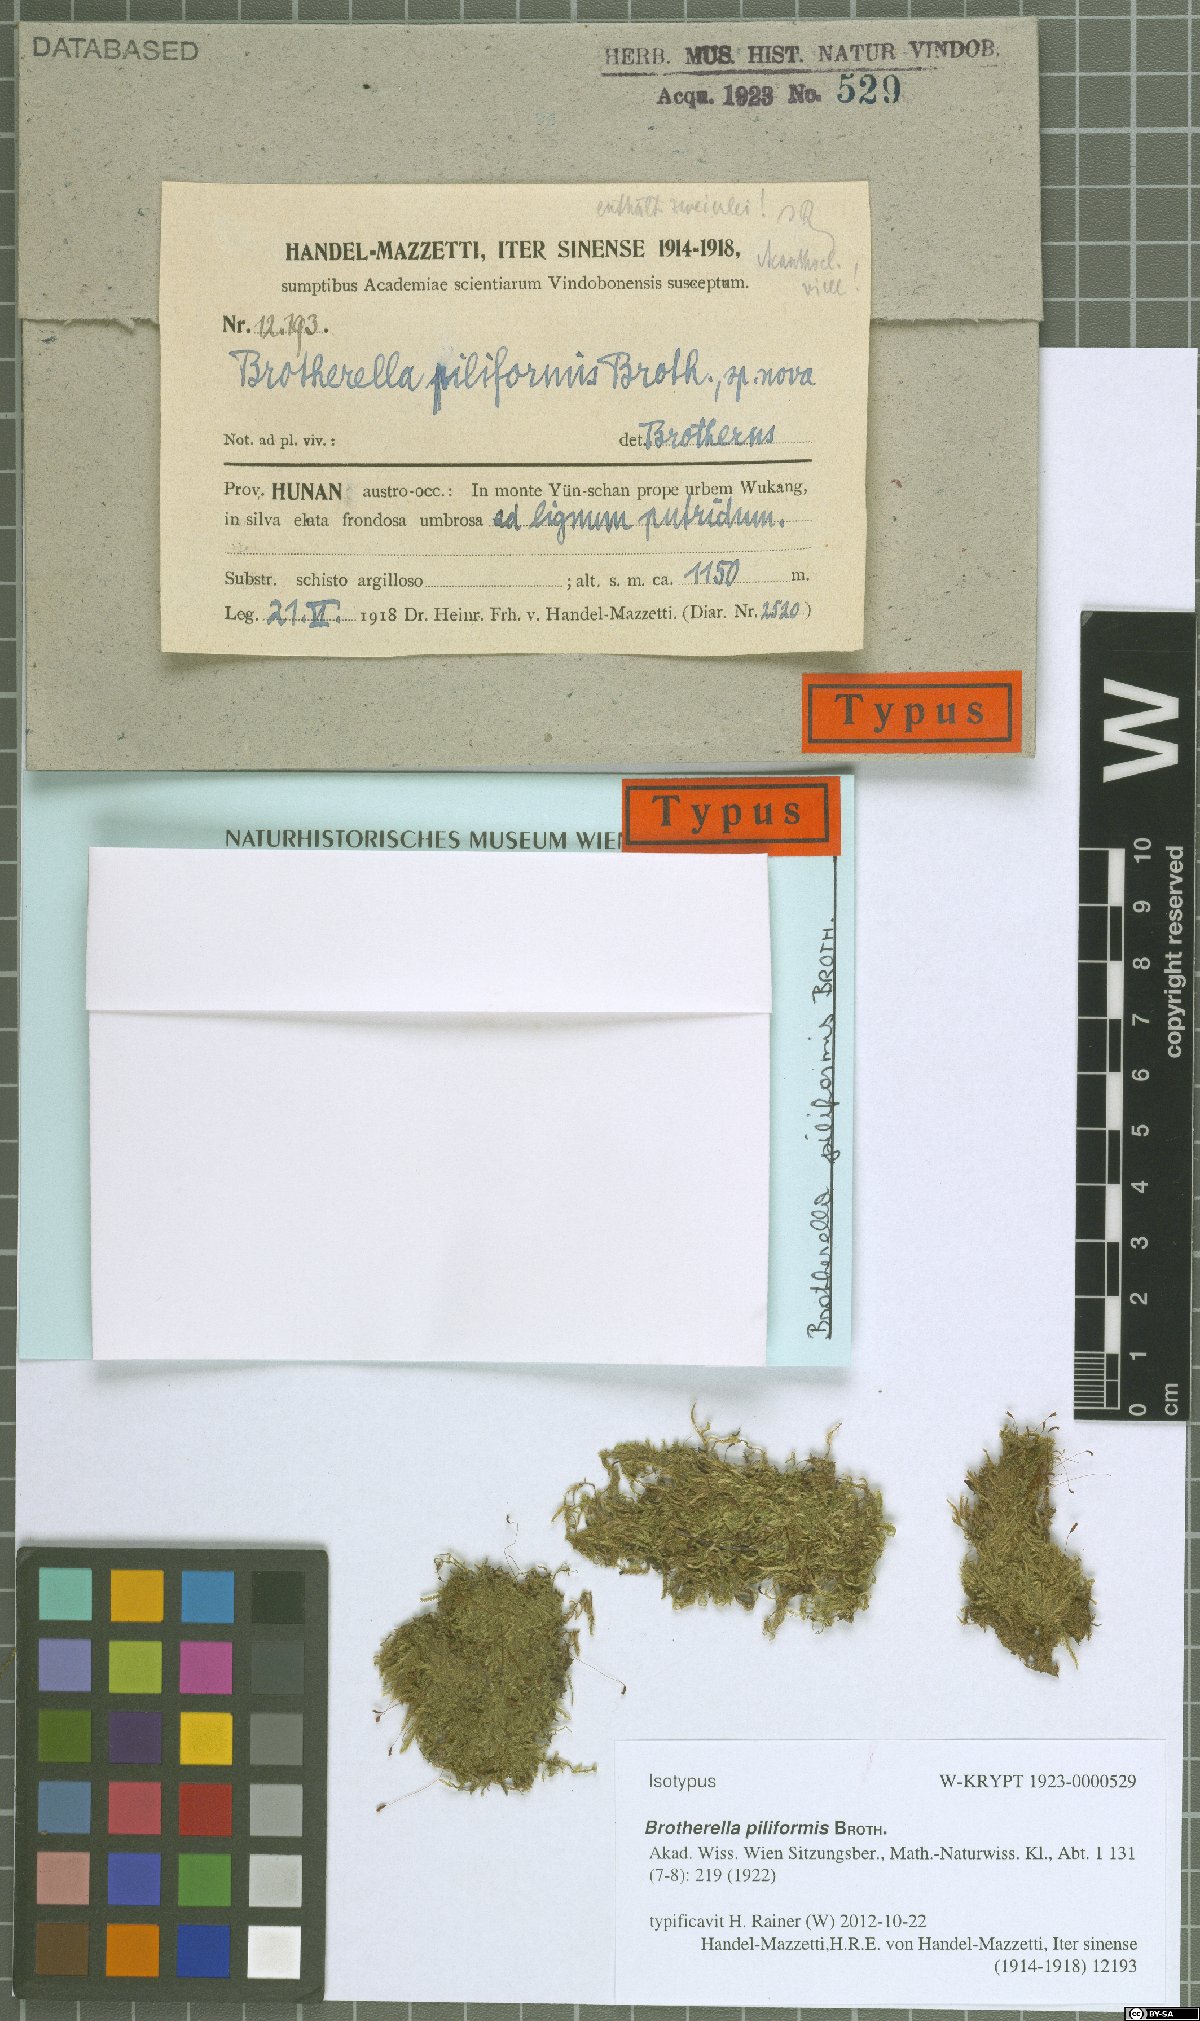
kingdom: Plantae
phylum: Bryophyta
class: Bryopsida
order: Hypnales
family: Pylaisiadelphaceae
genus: Wijkia
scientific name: Wijkia hornschuchii
